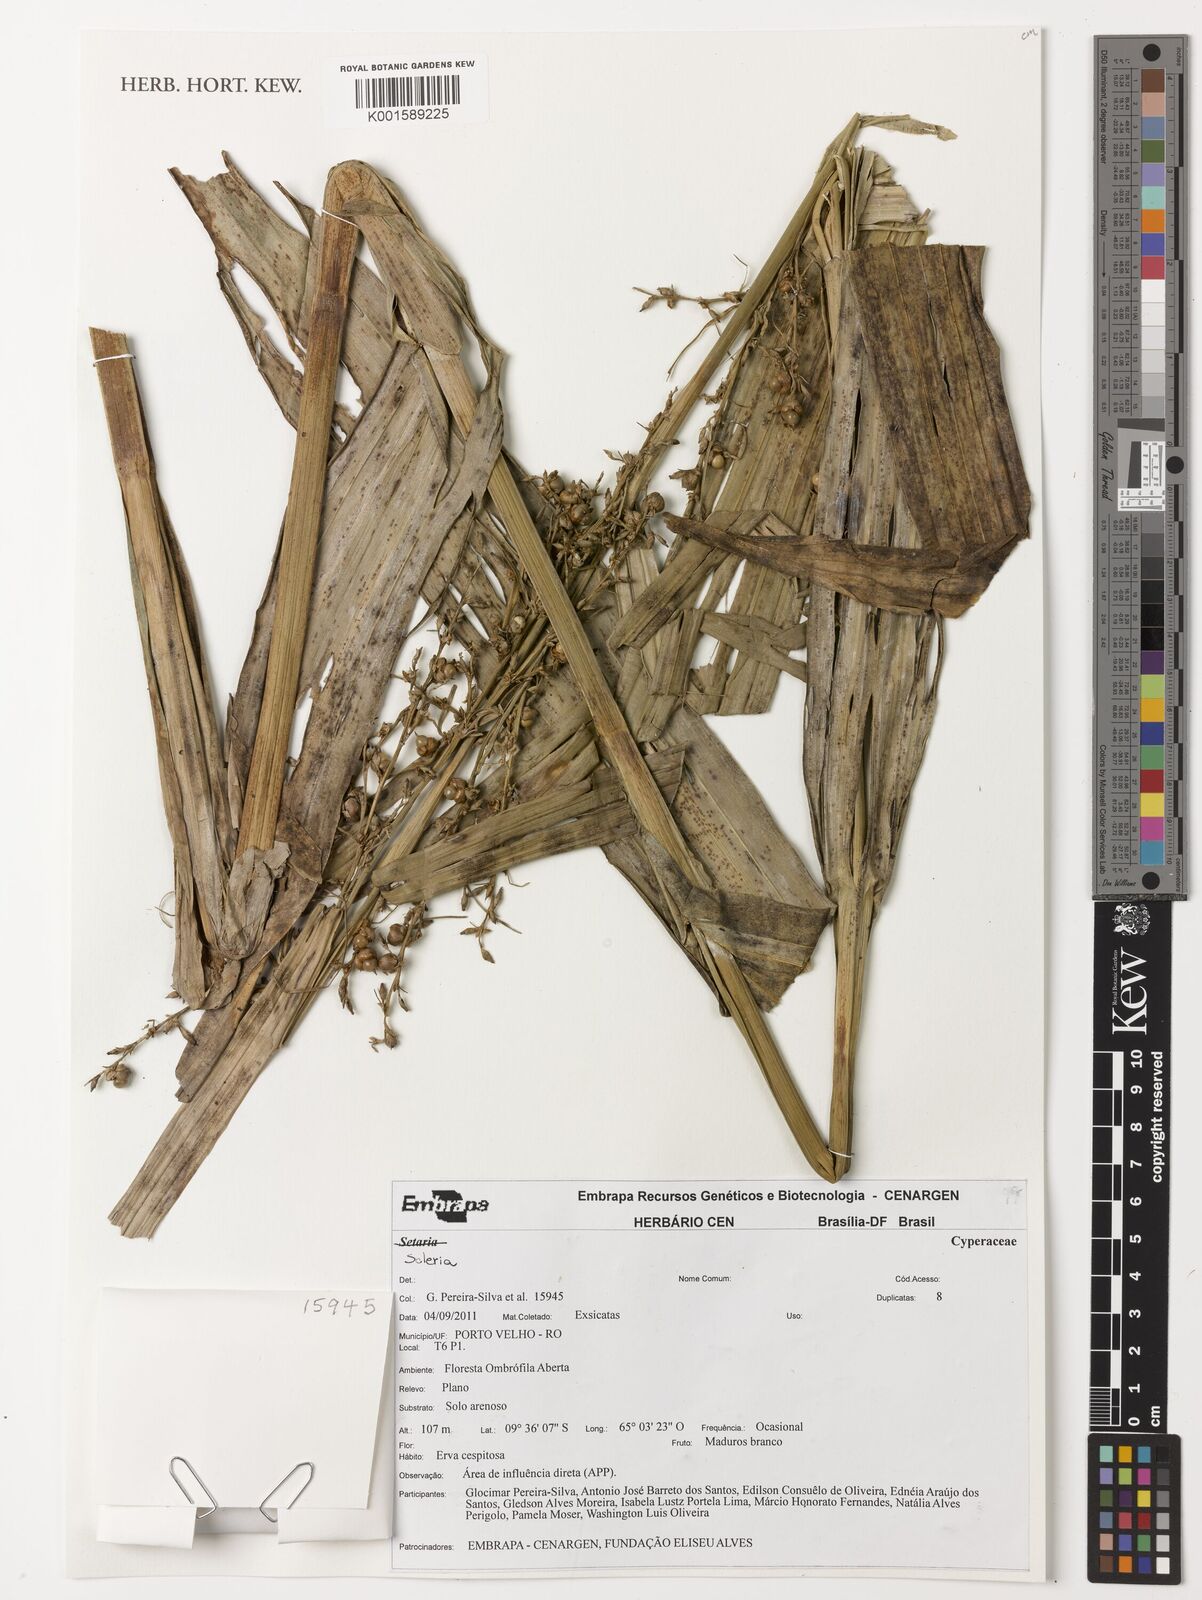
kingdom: Plantae
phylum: Tracheophyta
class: Liliopsida
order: Poales
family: Cyperaceae
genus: Scleria
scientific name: Scleria
